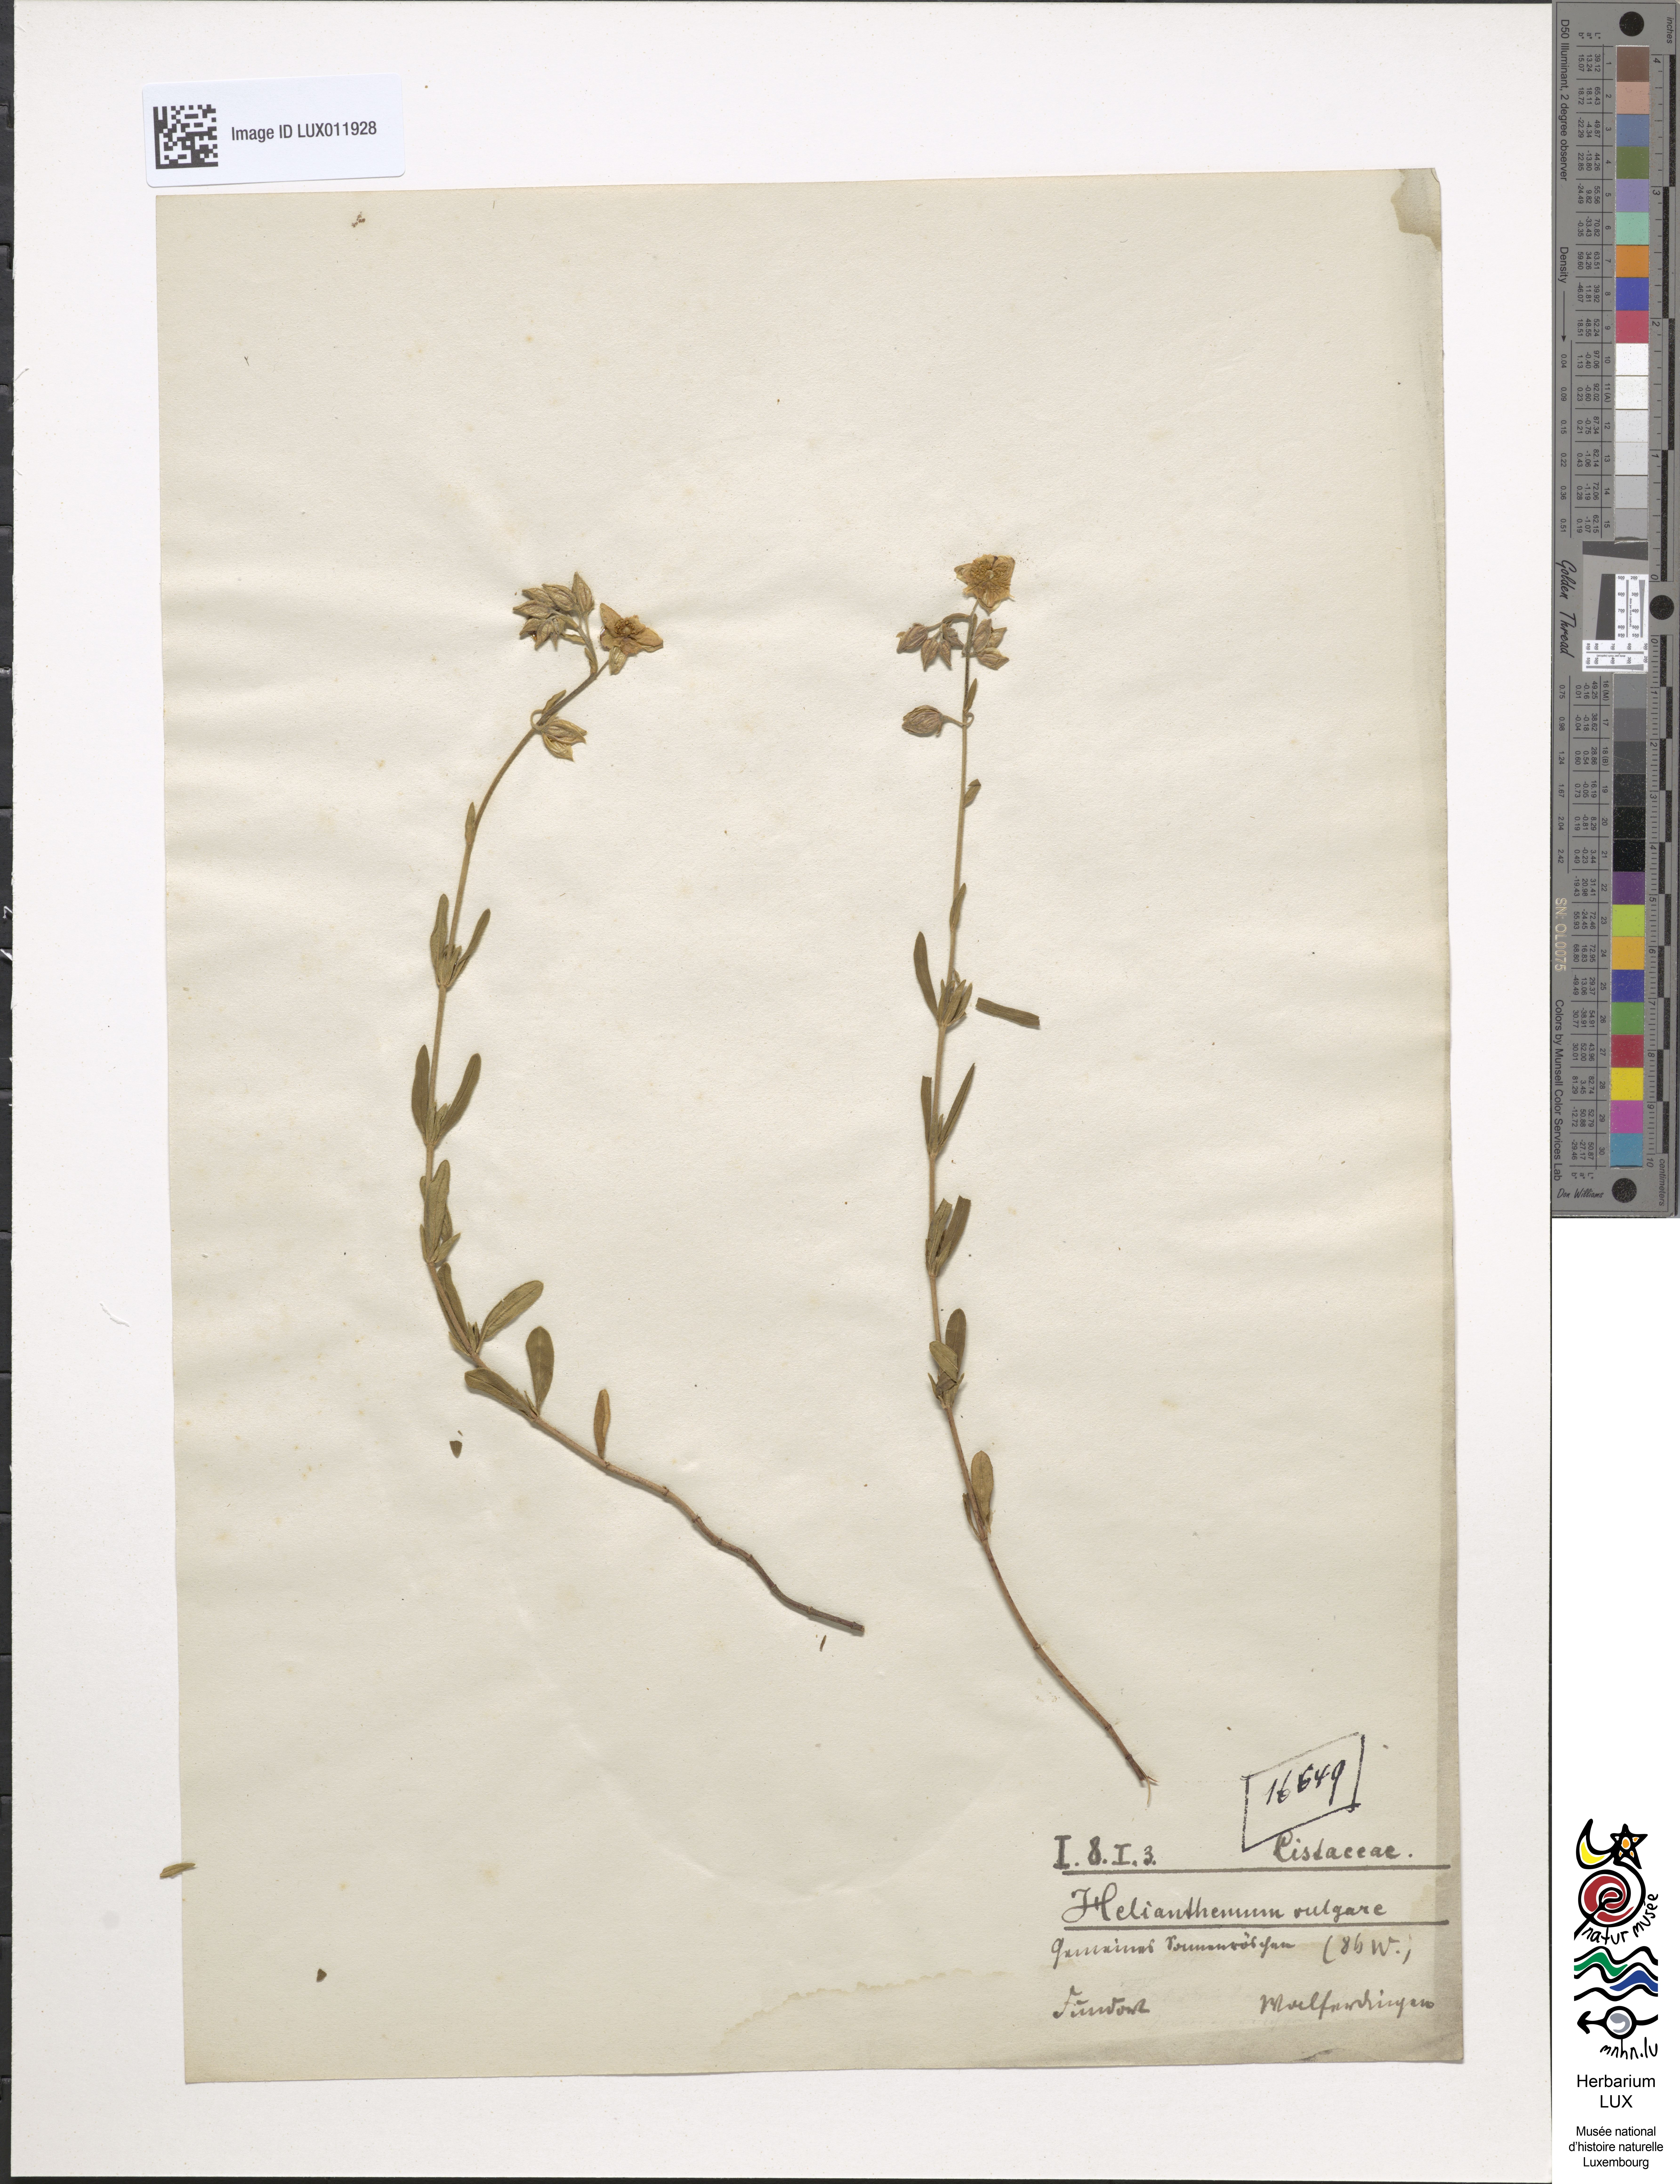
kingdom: Plantae
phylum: Tracheophyta
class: Magnoliopsida
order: Malvales
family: Cistaceae
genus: Helianthemum
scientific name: Helianthemum nummularium
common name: Common rock-rose
